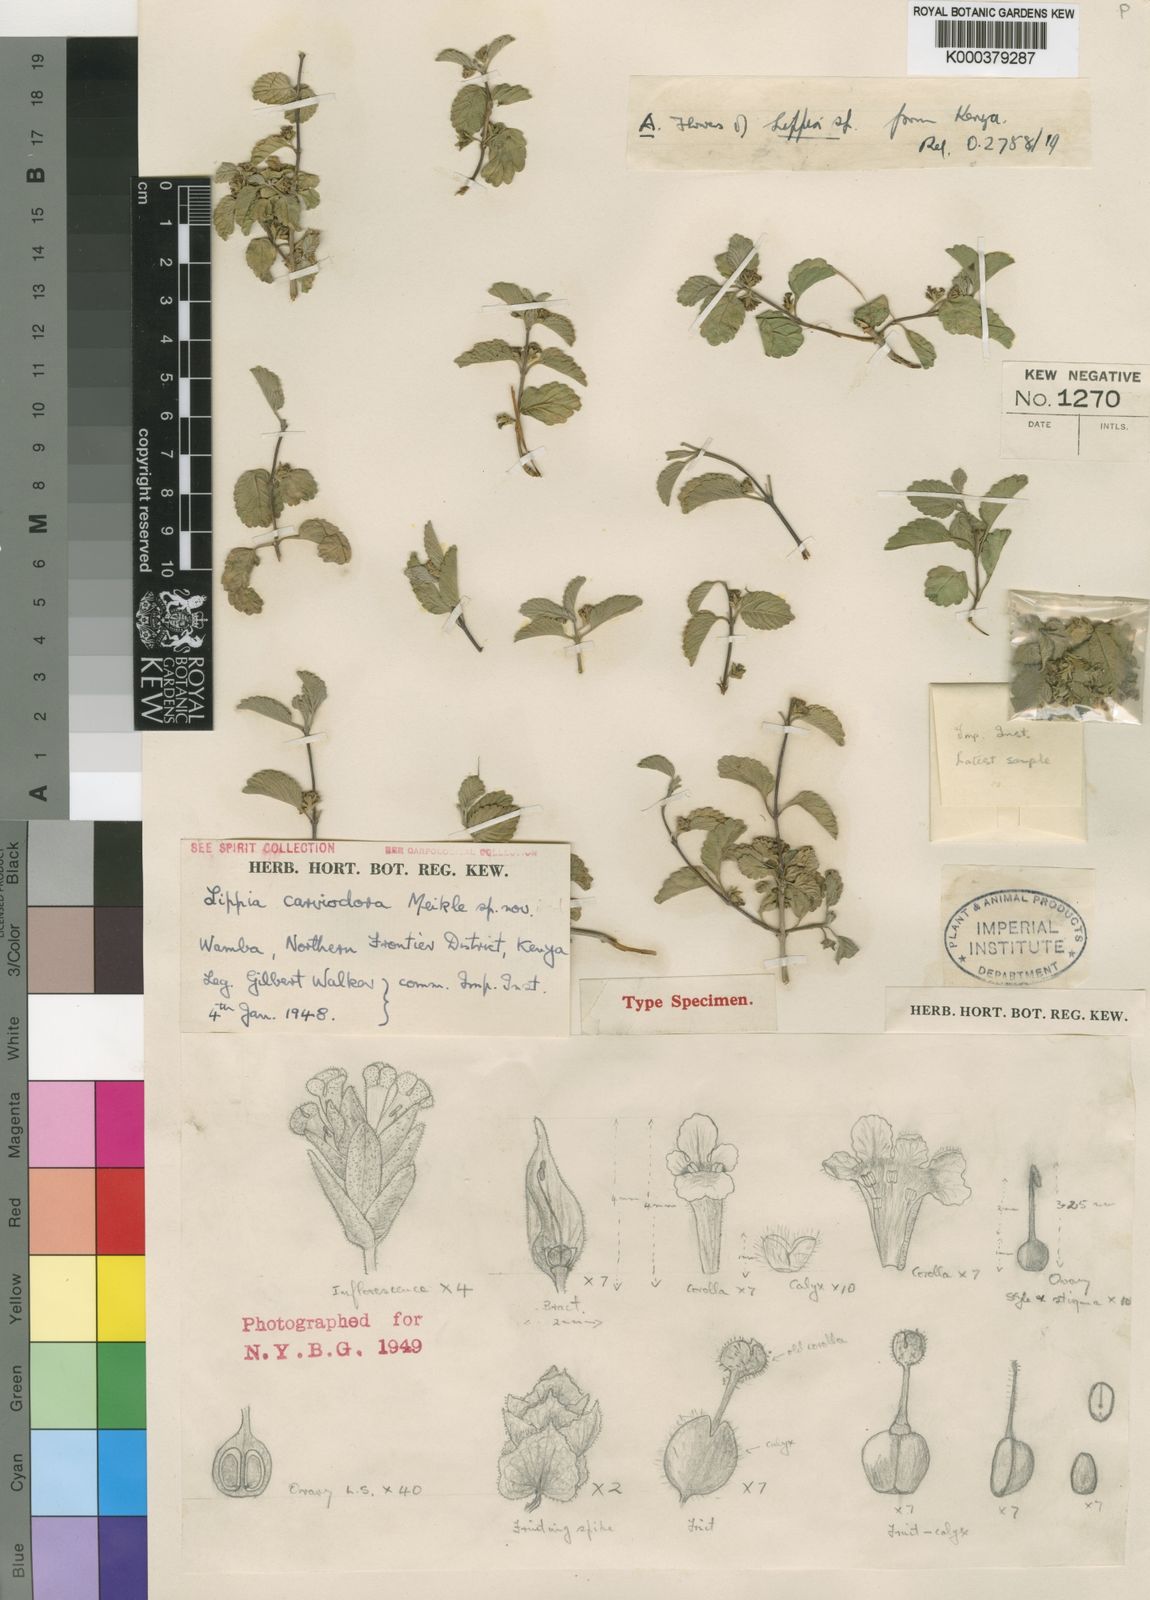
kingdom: Plantae
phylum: Tracheophyta
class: Magnoliopsida
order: Lamiales
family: Verbenaceae
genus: Lippia
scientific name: Lippia carviodora
